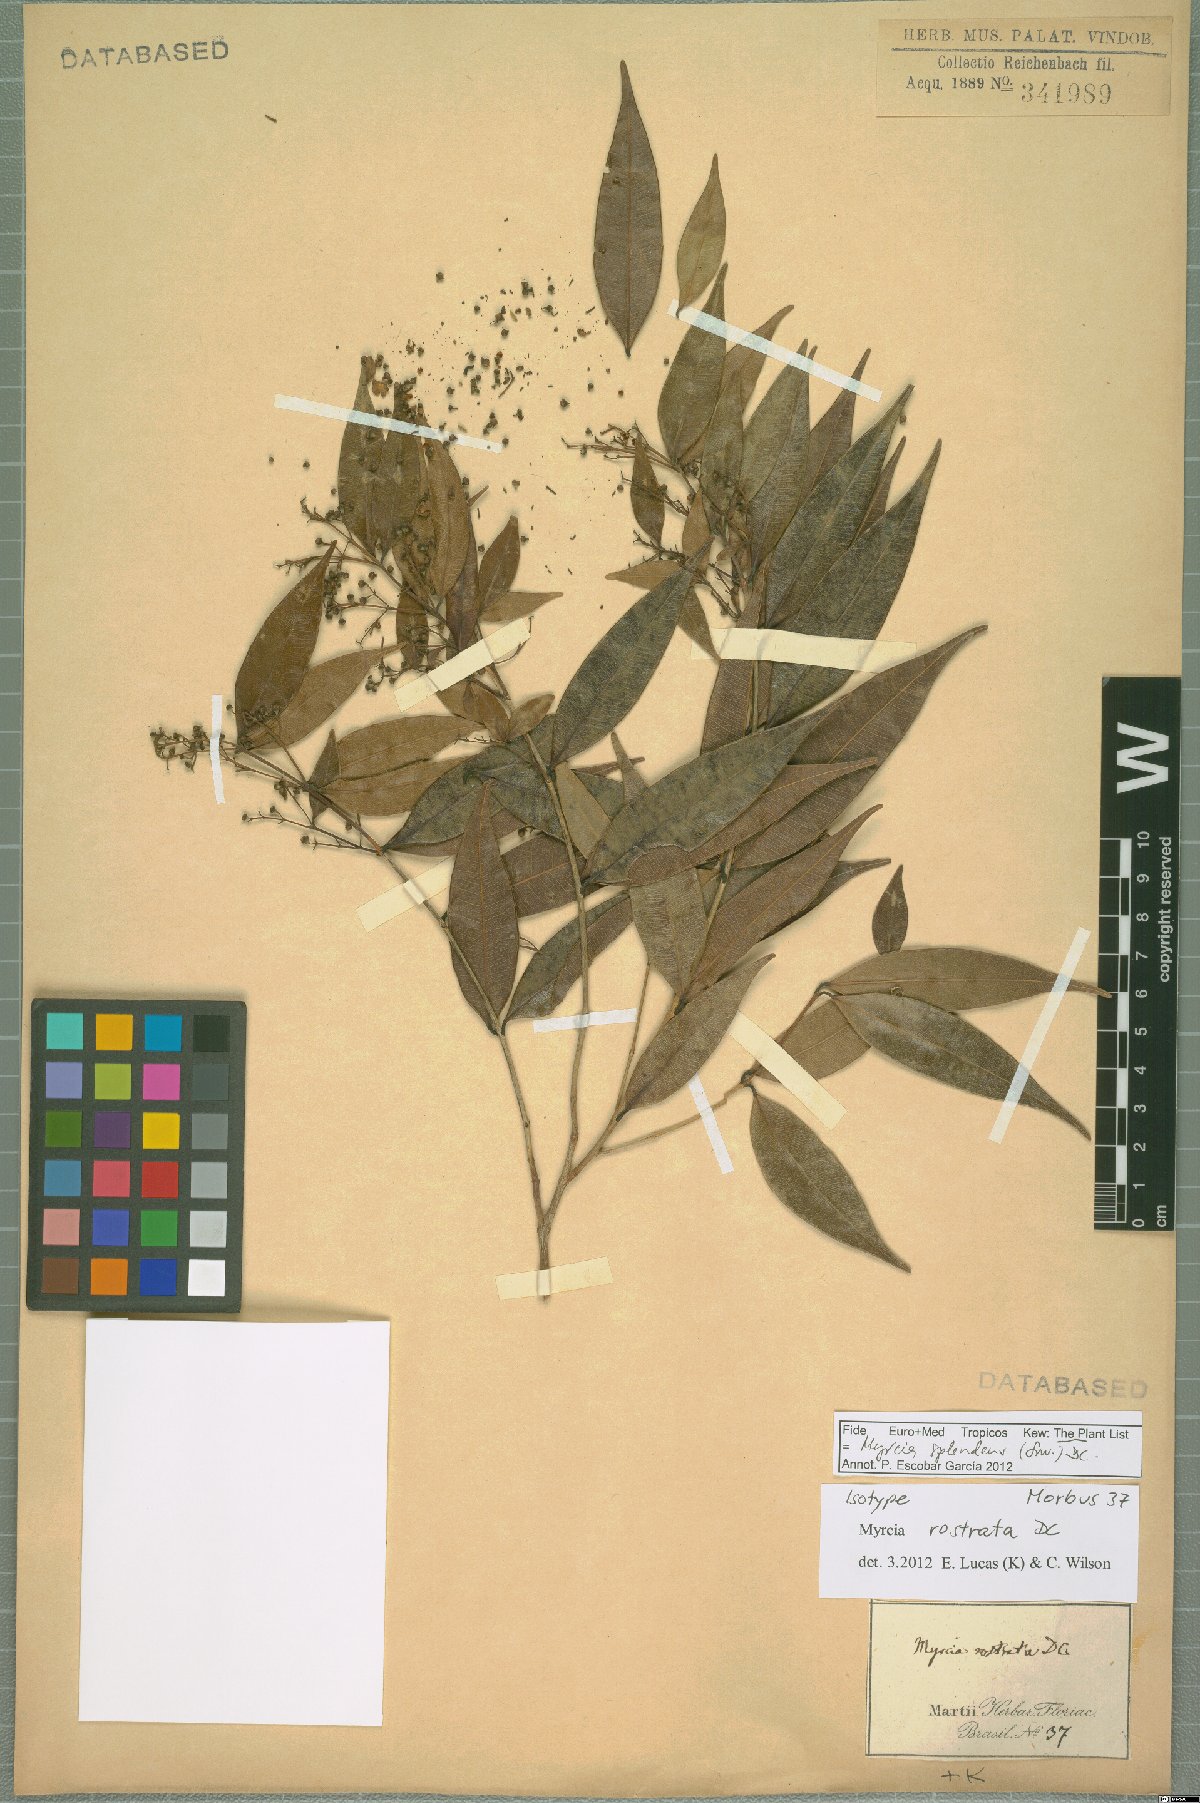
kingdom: Plantae
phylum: Tracheophyta
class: Magnoliopsida
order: Myrtales
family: Myrtaceae
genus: Myrcia
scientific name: Myrcia splendens
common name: Surinam cherry
